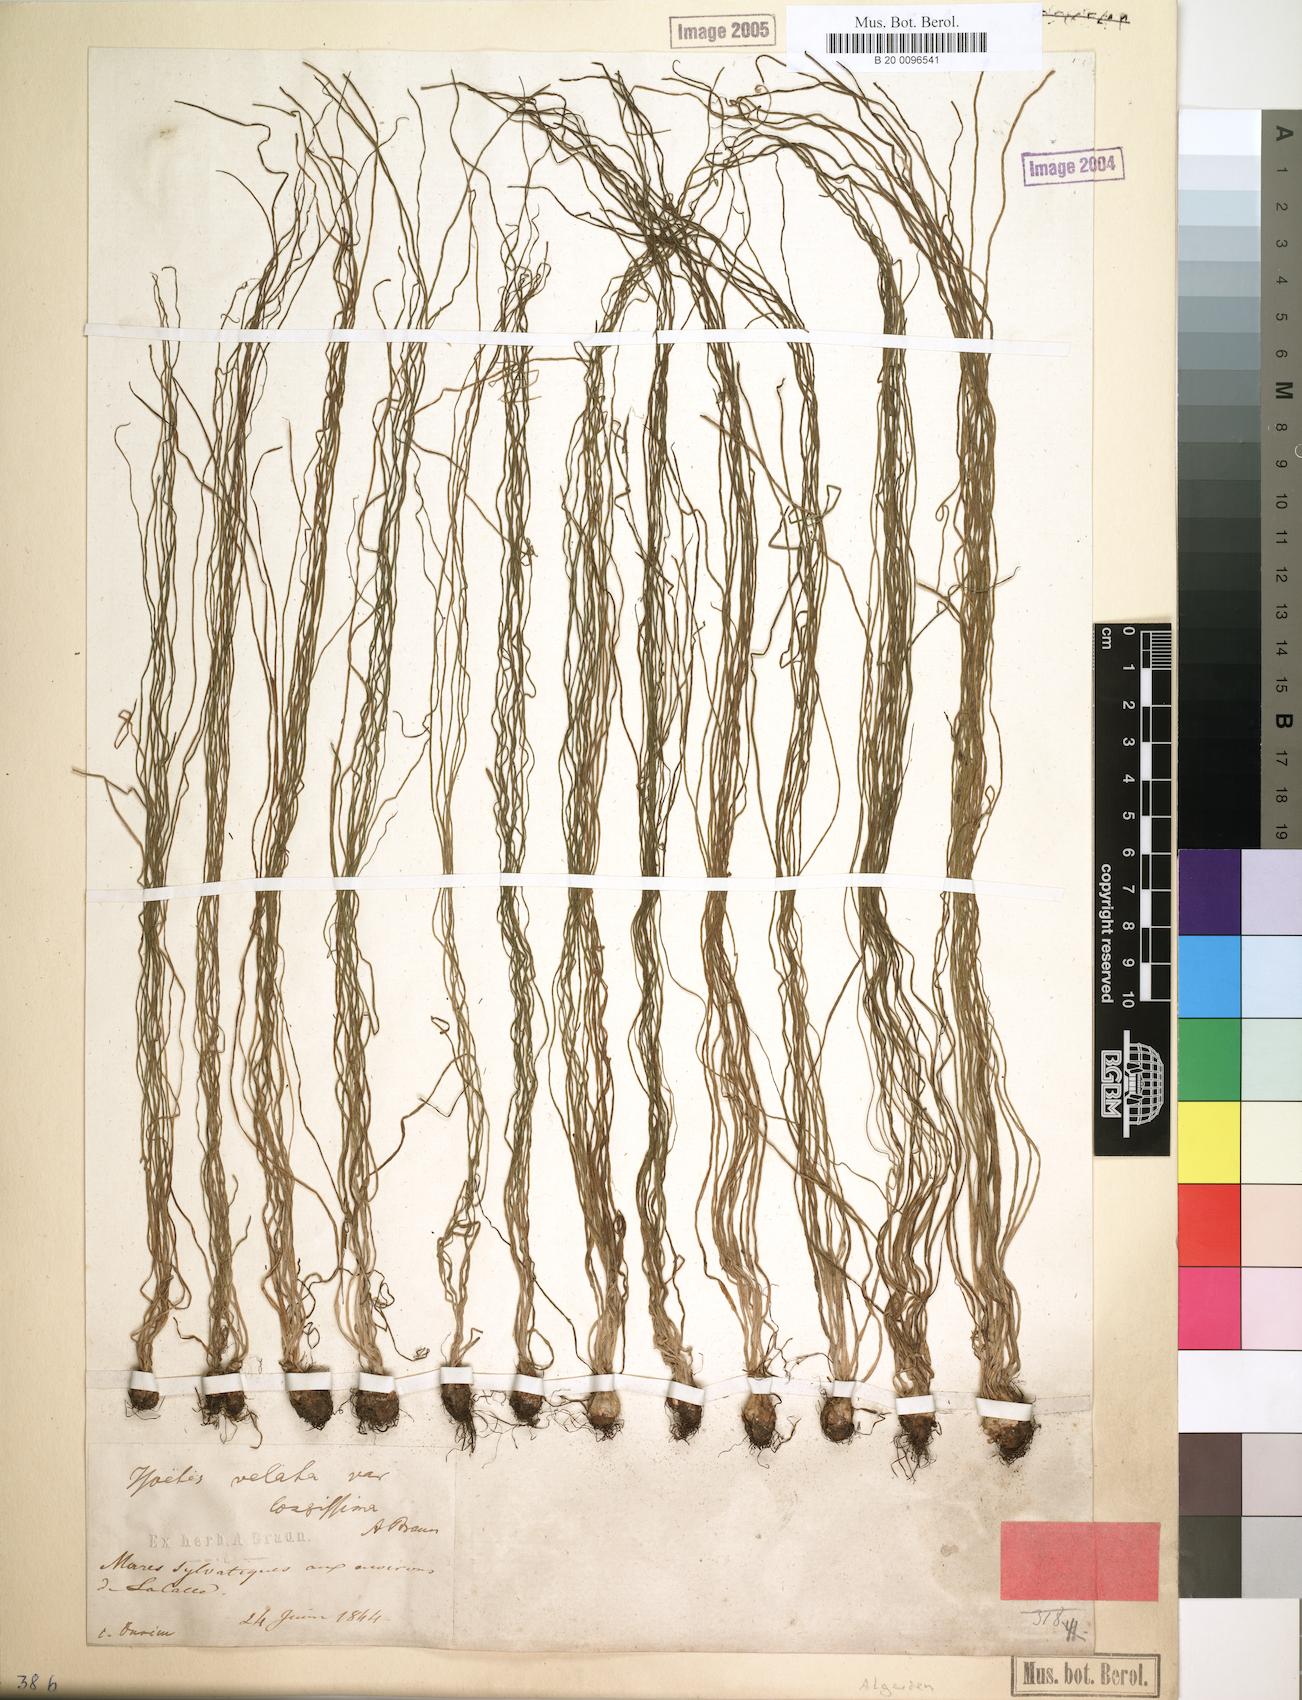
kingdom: Plantae
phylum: Tracheophyta
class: Lycopodiopsida
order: Isoetales
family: Isoetaceae
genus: Isoetes
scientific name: Isoetes longissima
